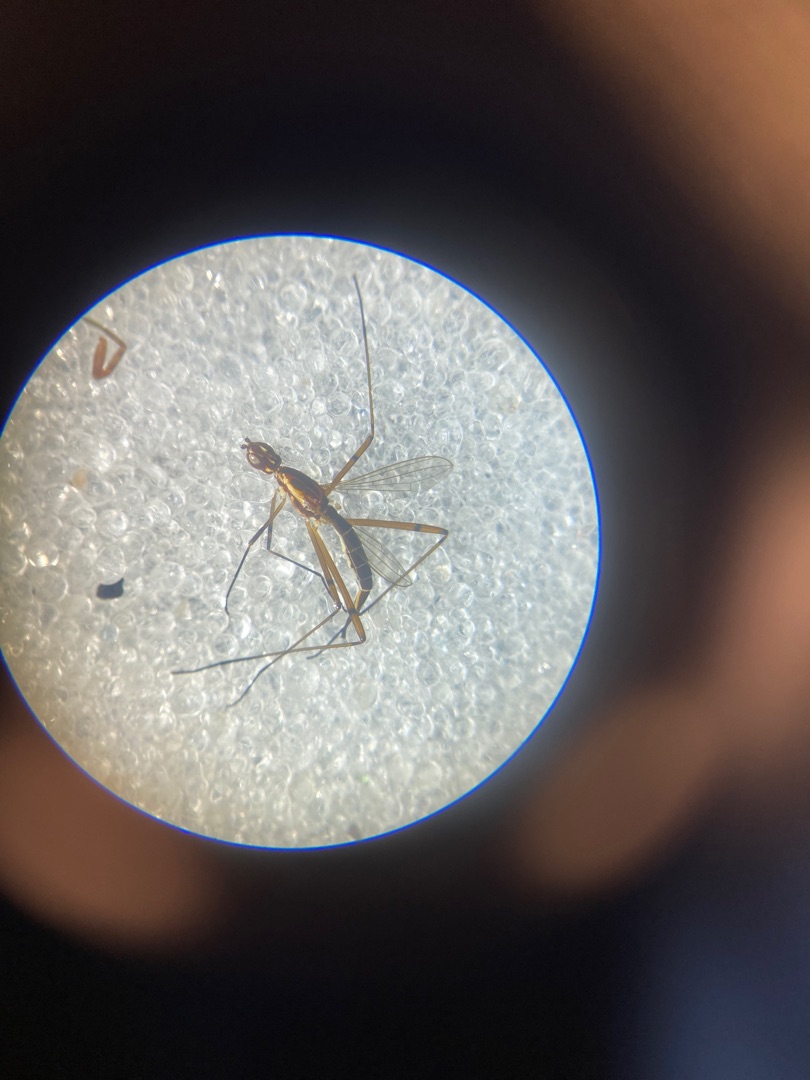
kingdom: Animalia
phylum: Arthropoda
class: Insecta
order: Diptera
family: Micropezidae
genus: Micropeza
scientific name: Micropeza lateralis
